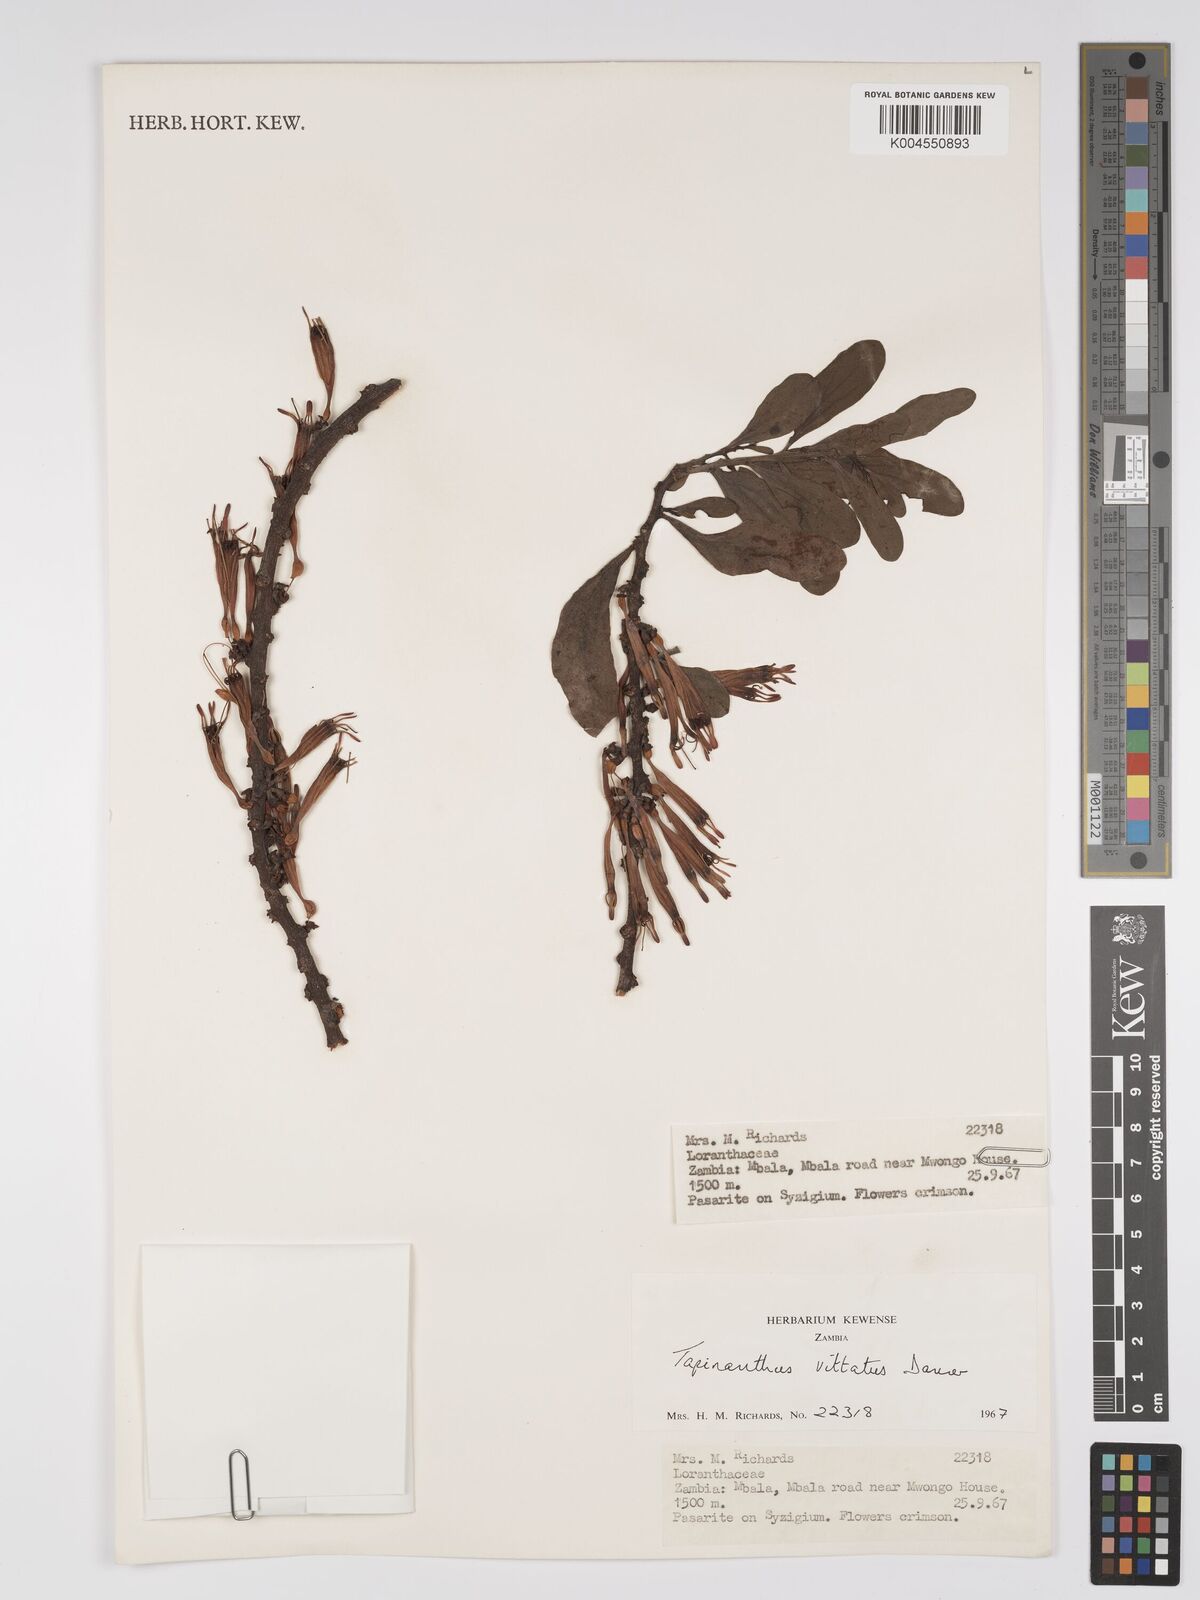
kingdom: Plantae
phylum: Tracheophyta
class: Magnoliopsida
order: Santalales
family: Loranthaceae
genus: Agelanthus
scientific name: Agelanthus zizyphifolius
